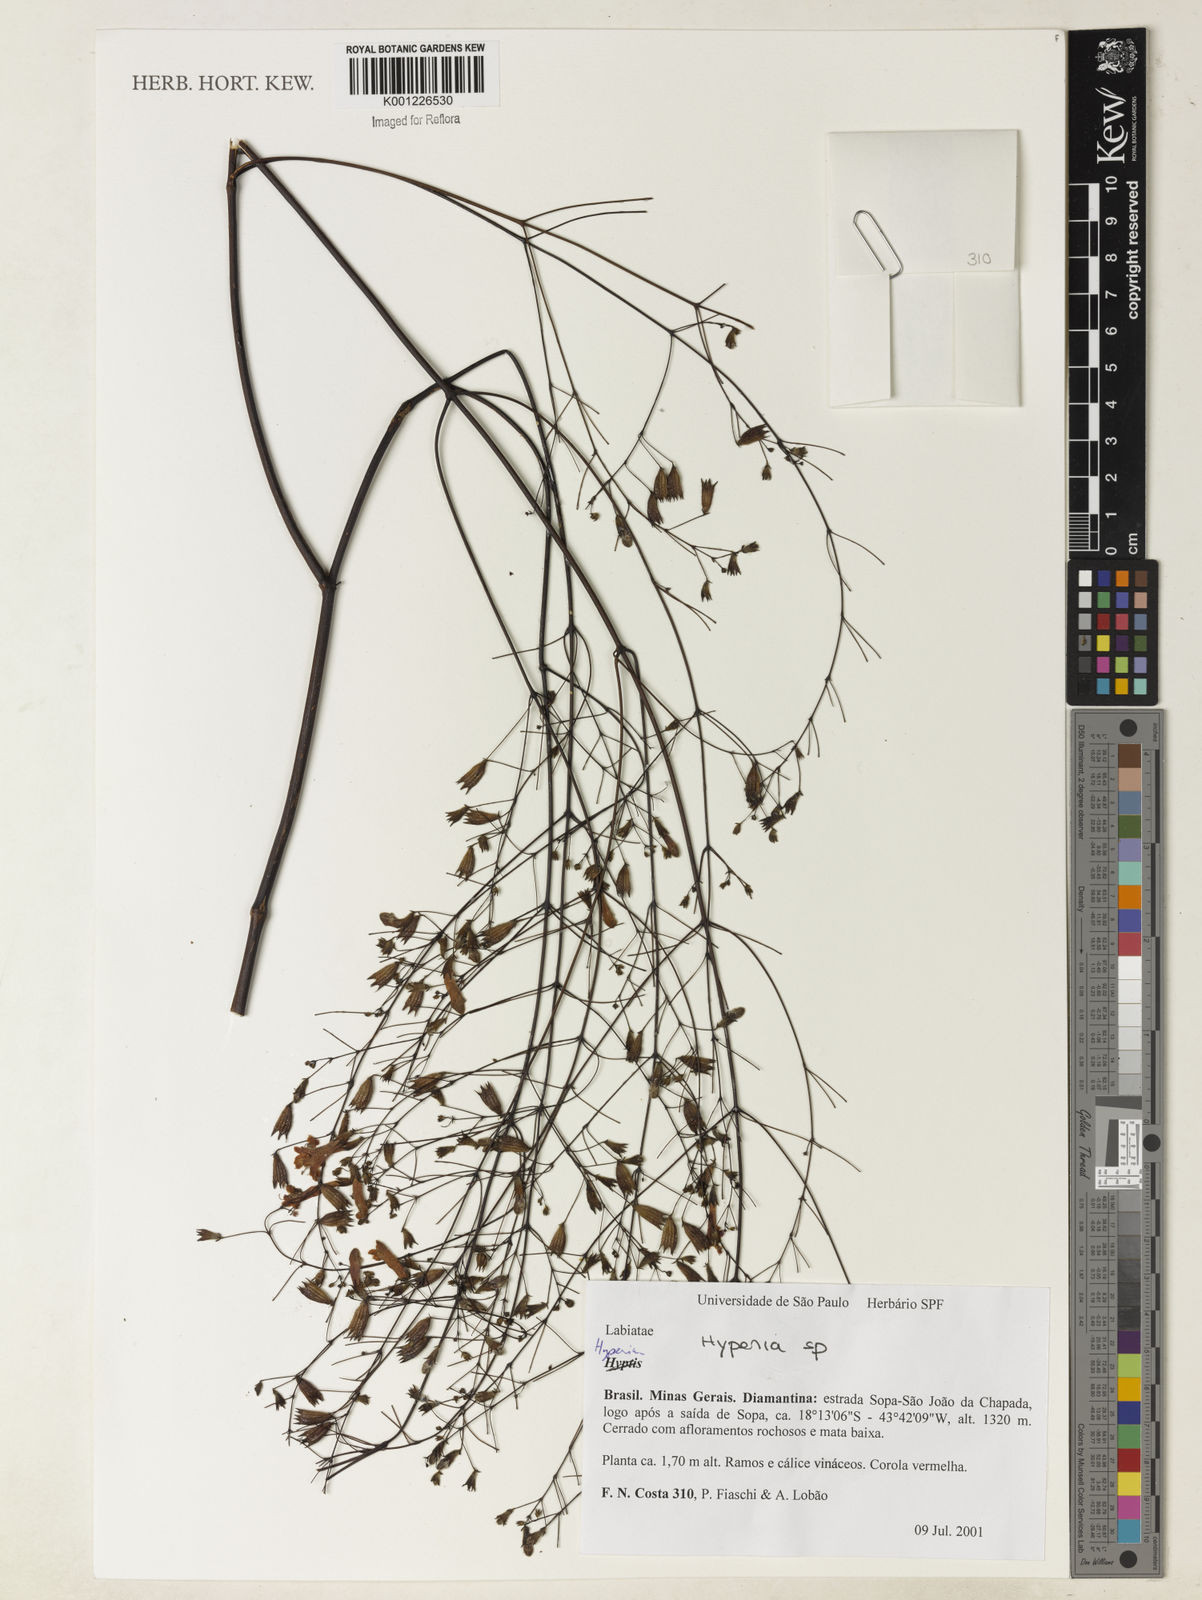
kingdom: Plantae
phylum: Tracheophyta
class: Magnoliopsida
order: Lamiales
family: Lamiaceae
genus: Hypenia
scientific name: Hypenia
